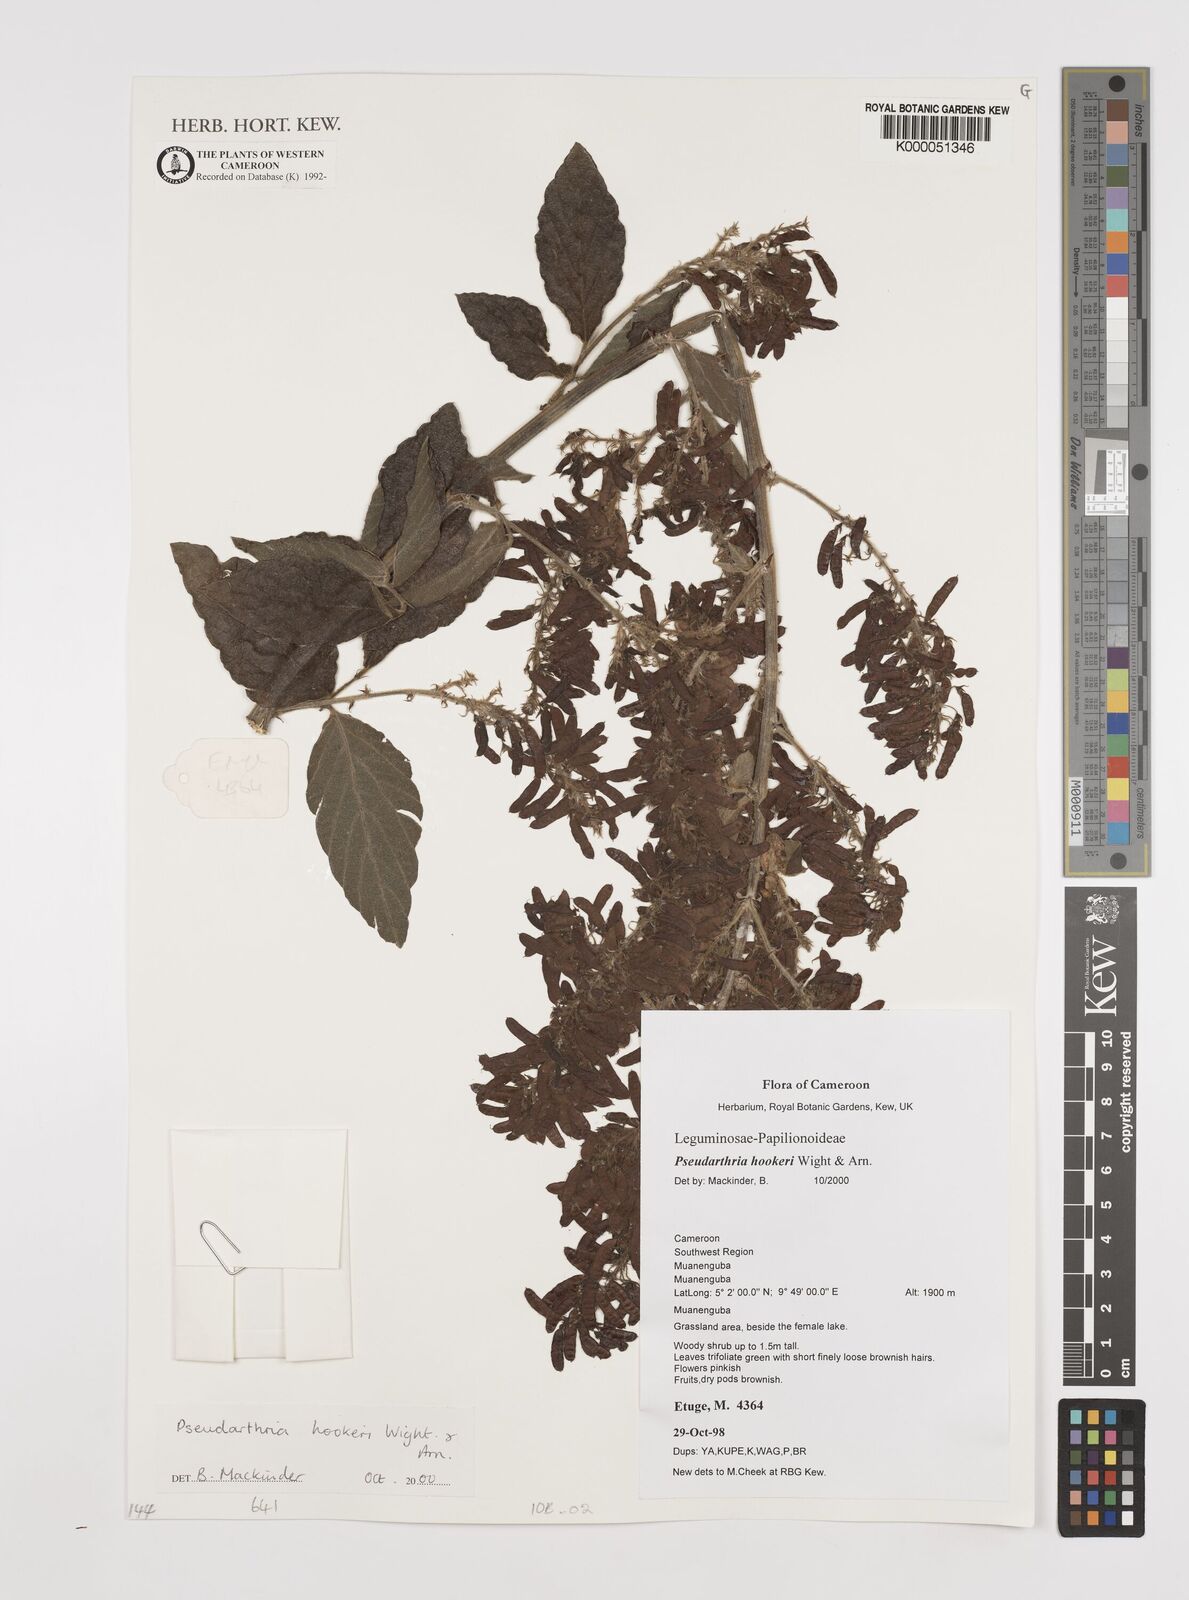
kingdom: Plantae
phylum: Tracheophyta
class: Magnoliopsida
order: Fabales
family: Fabaceae
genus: Pseudarthria
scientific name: Pseudarthria hookeri
